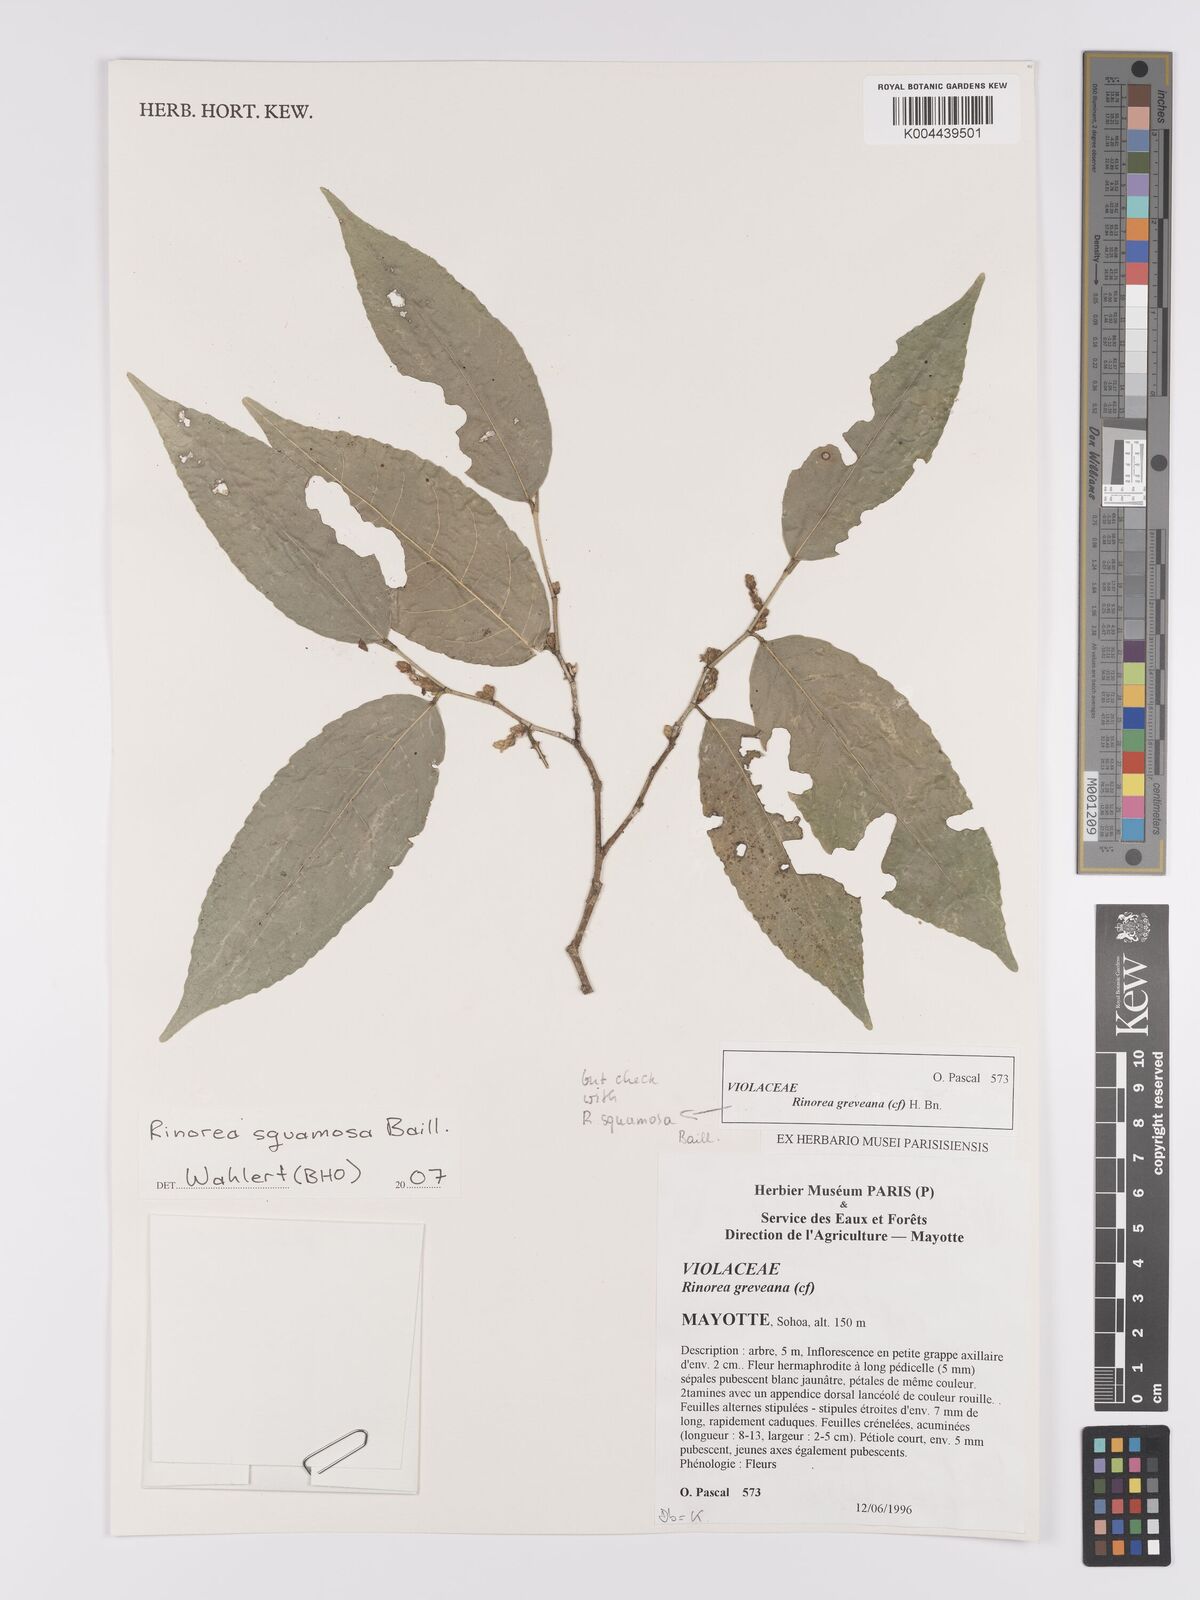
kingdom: Plantae
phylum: Tracheophyta
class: Magnoliopsida
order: Malpighiales
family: Violaceae
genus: Rinorea
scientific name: Rinorea squamosa
